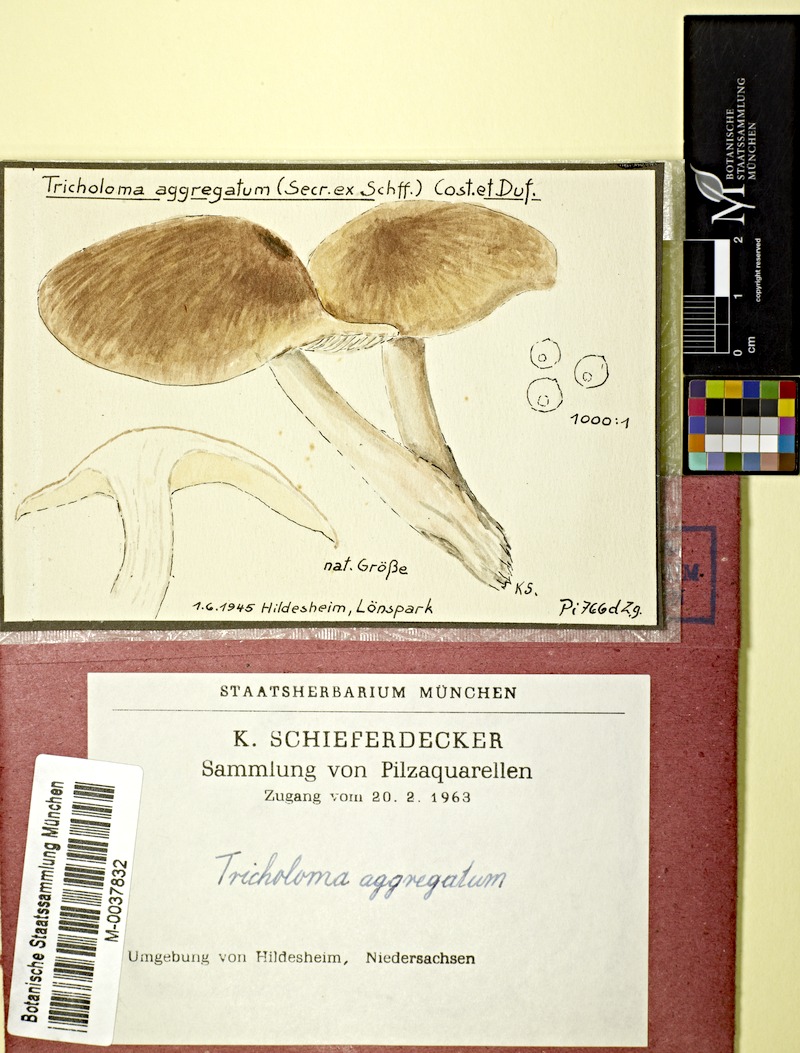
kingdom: Fungi
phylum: Basidiomycota
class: Agaricomycetes
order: Agaricales
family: Lyophyllaceae
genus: Lyophyllum
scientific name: Lyophyllum decastes
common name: Clustered domecap
